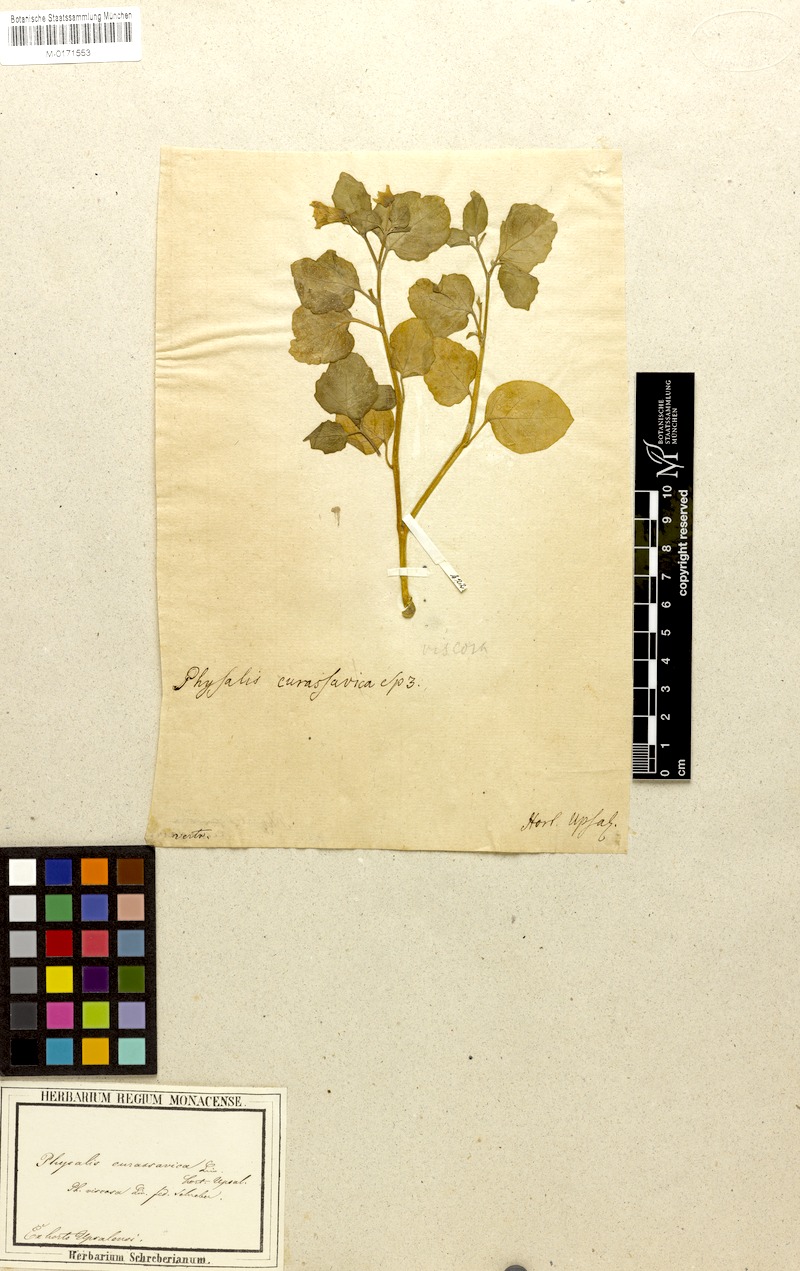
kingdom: Plantae
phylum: Tracheophyta
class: Magnoliopsida
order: Solanales
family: Solanaceae
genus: Physalis
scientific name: Physalis viscosa
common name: Stellate ground-cherry
